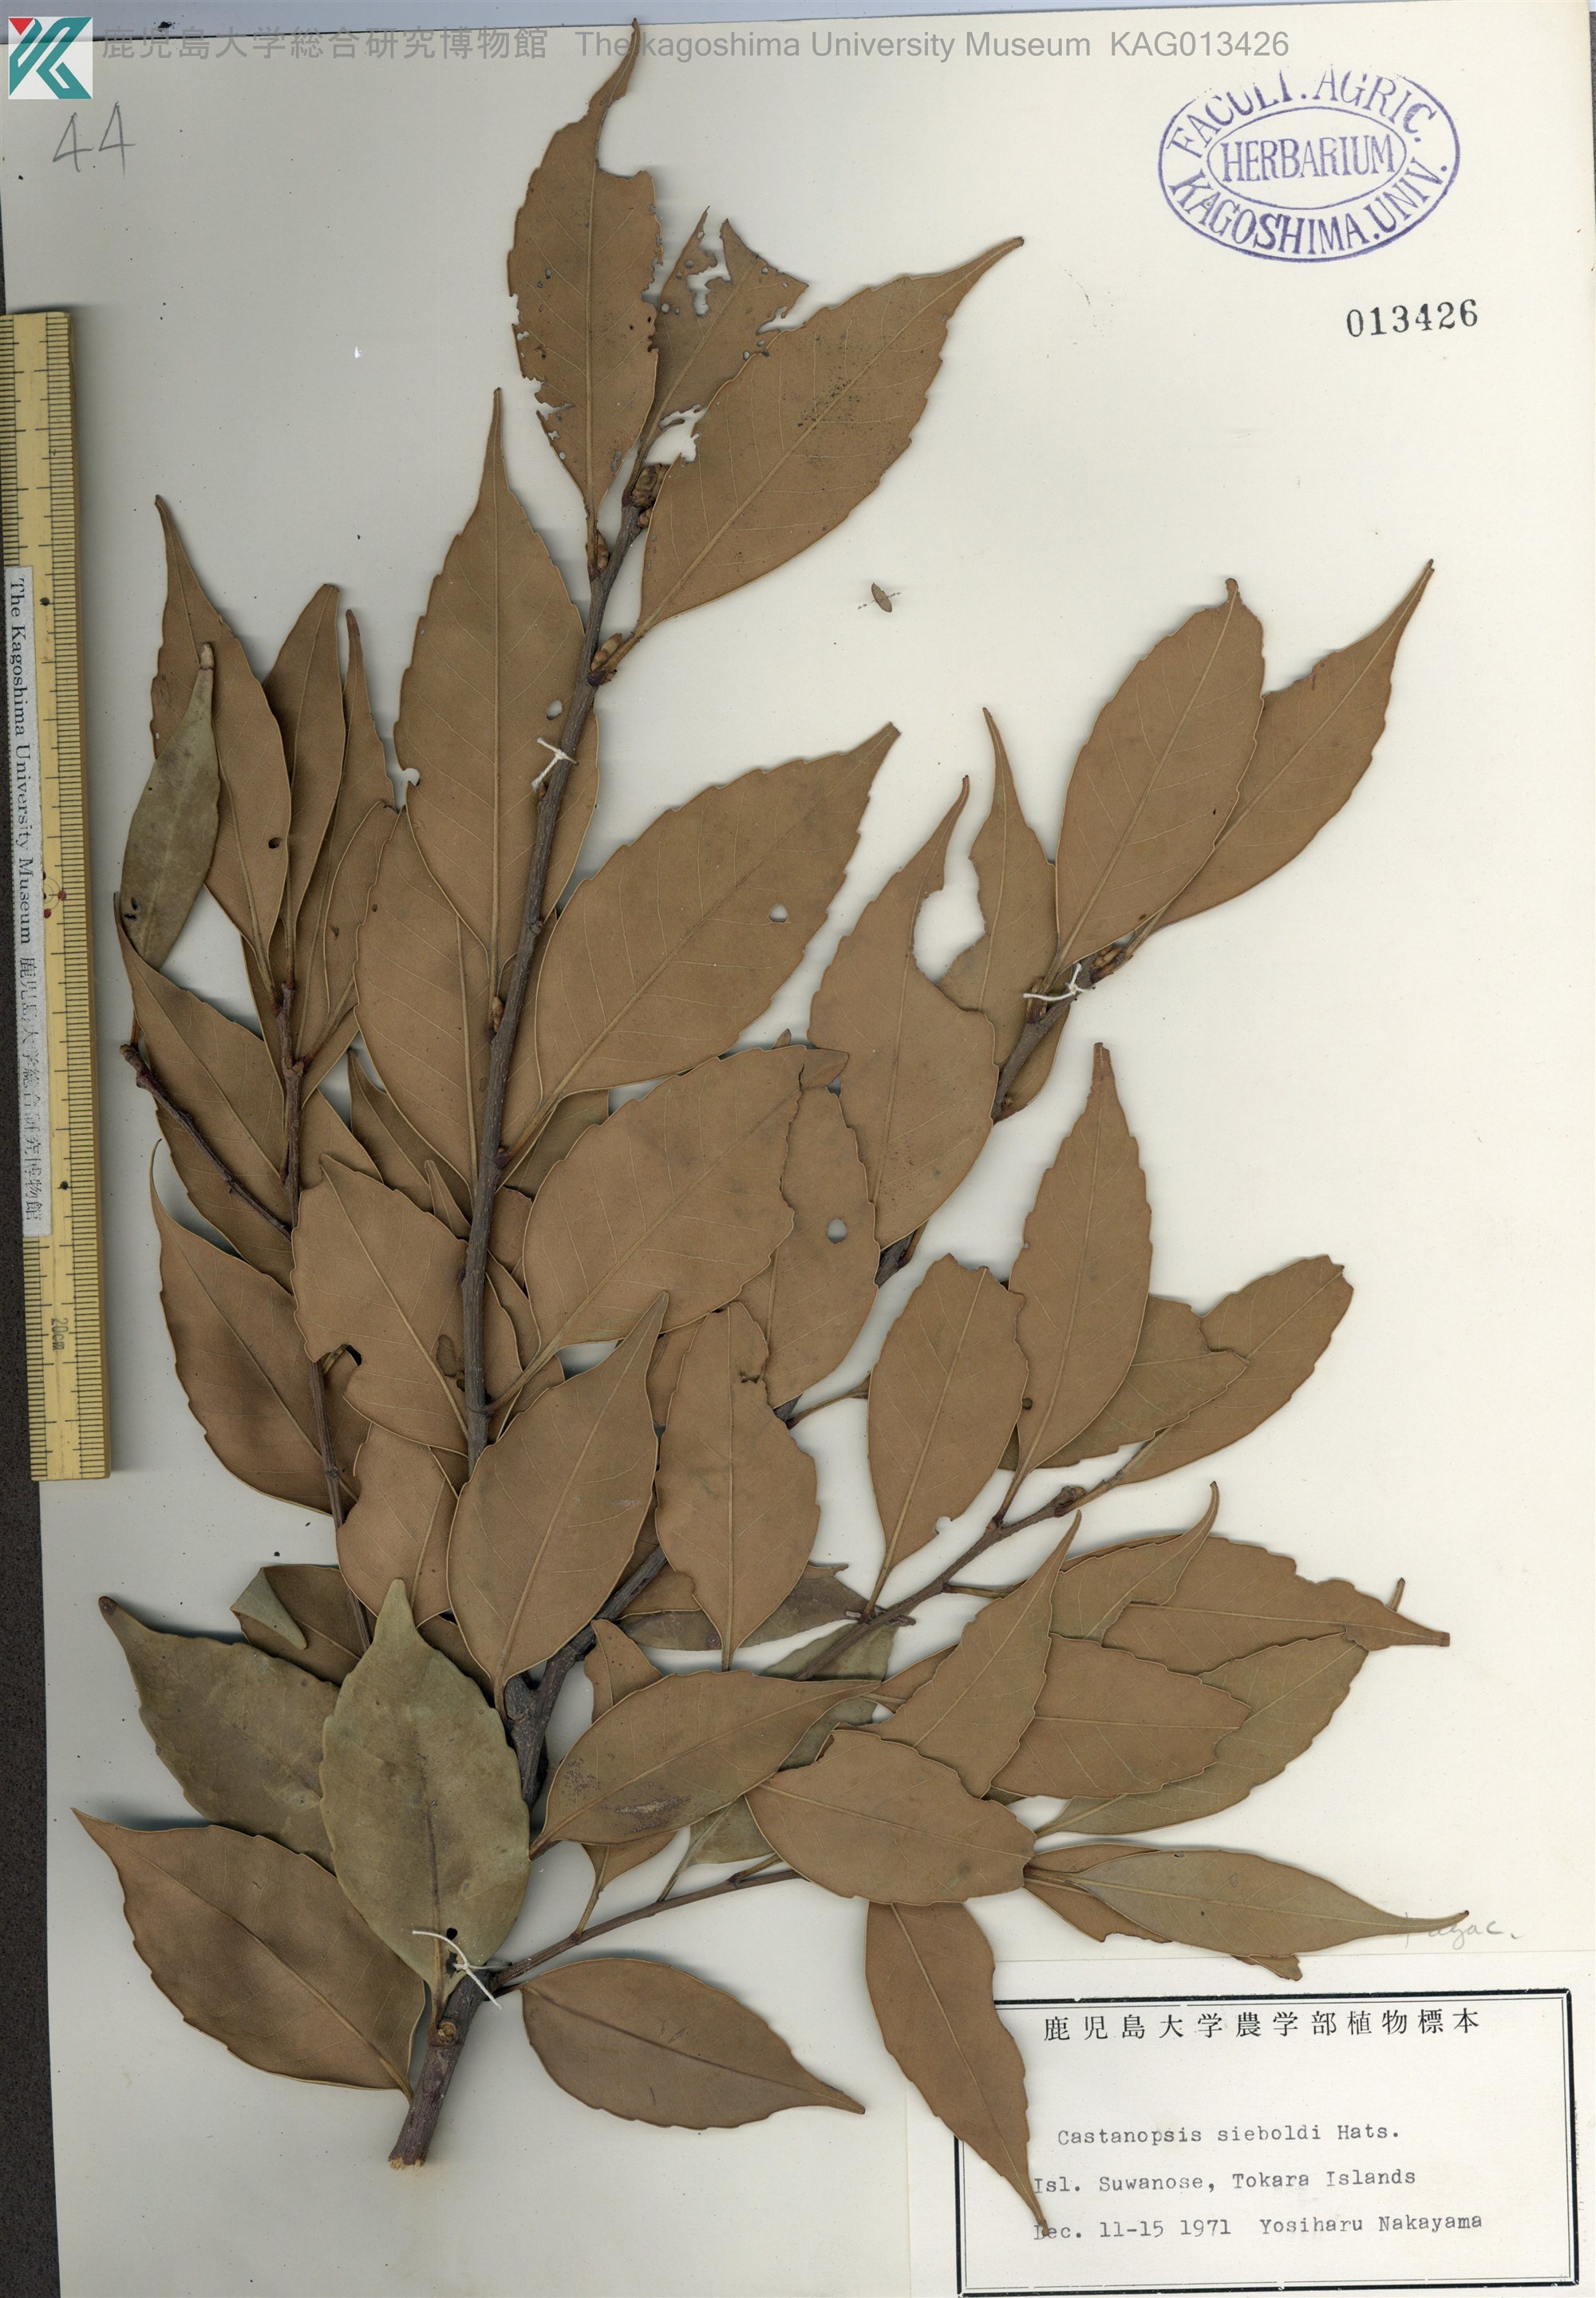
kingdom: Plantae
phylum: Tracheophyta
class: Magnoliopsida
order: Fagales
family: Fagaceae
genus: Castanopsis
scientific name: Castanopsis sieboldii
